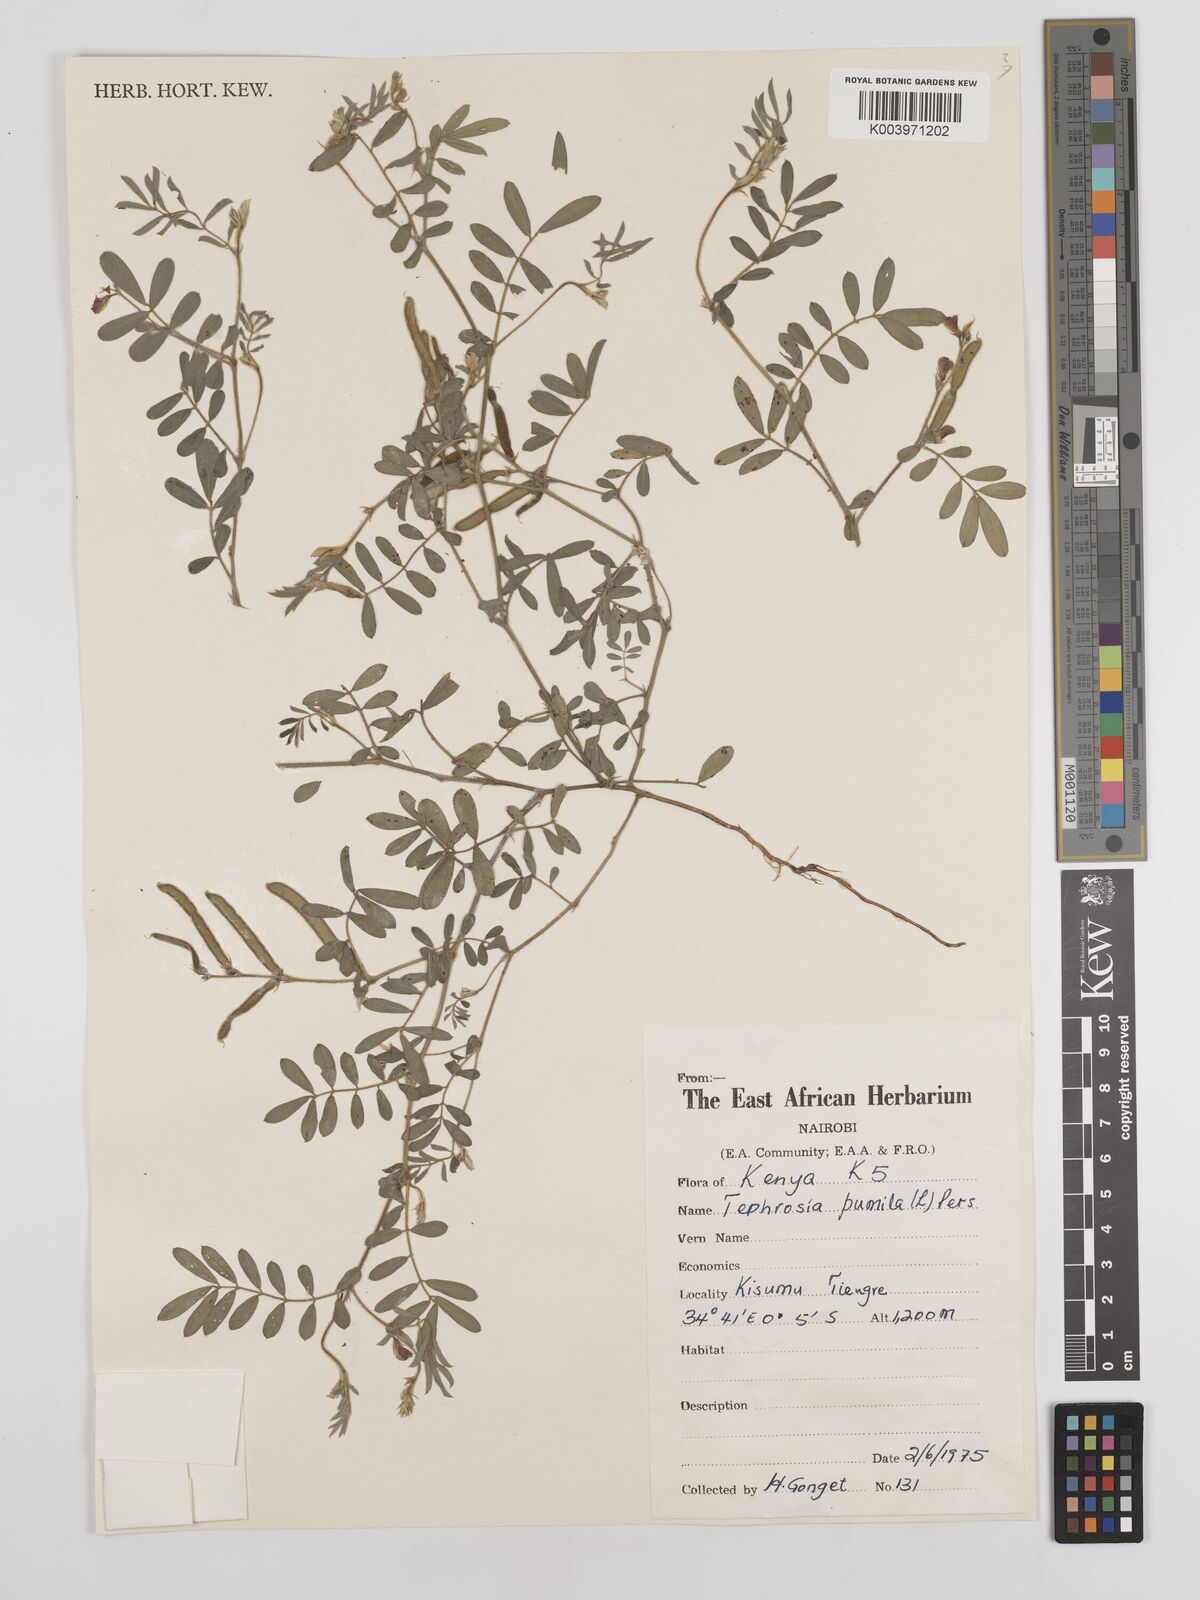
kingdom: Plantae
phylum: Tracheophyta
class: Magnoliopsida
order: Fabales
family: Fabaceae
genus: Tephrosia
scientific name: Tephrosia pumila
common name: Indigo sauvage
